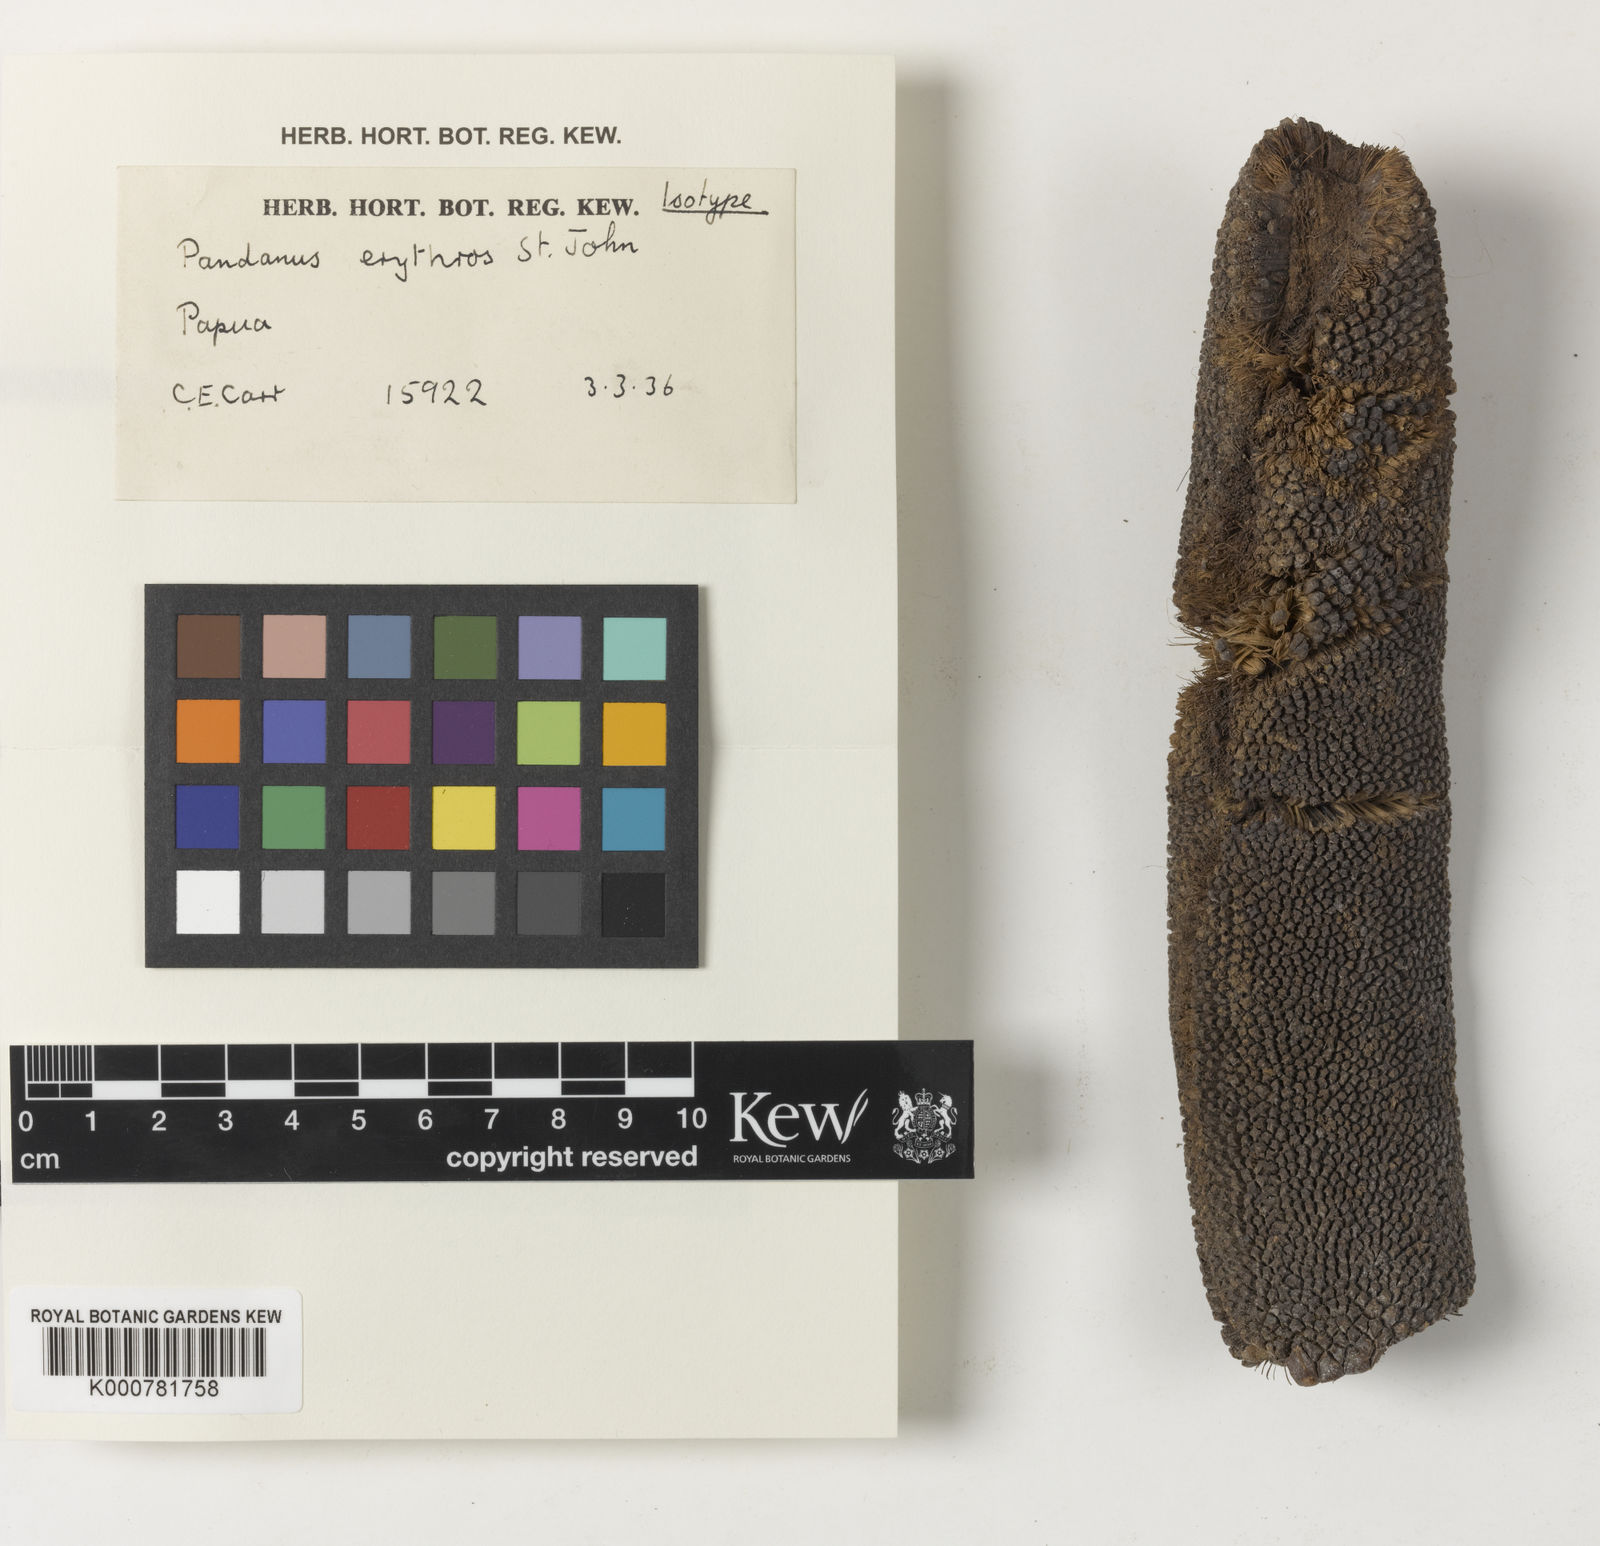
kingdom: Plantae
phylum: Tracheophyta
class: Liliopsida
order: Pandanales
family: Pandanaceae
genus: Pandanus
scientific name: Pandanus conoideus
